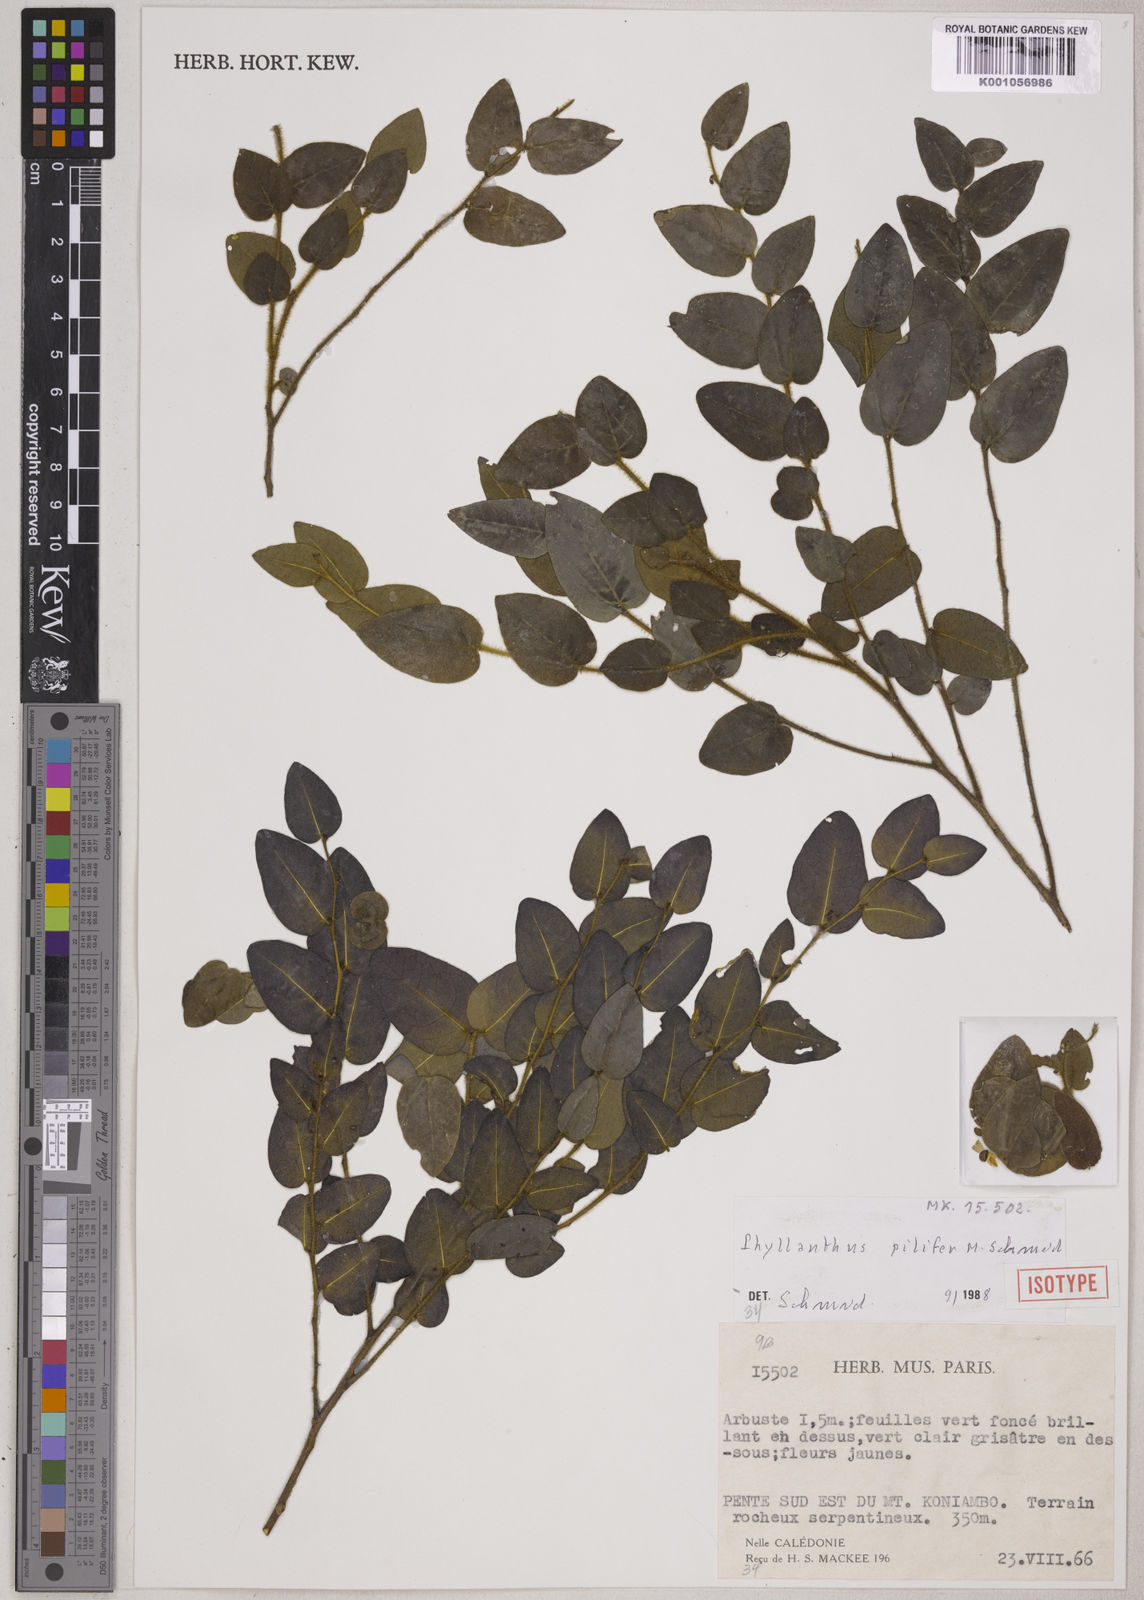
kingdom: Plantae
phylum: Tracheophyta
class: Magnoliopsida
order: Malpighiales
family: Phyllanthaceae
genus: Phyllanthus
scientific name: Phyllanthus pilifer
